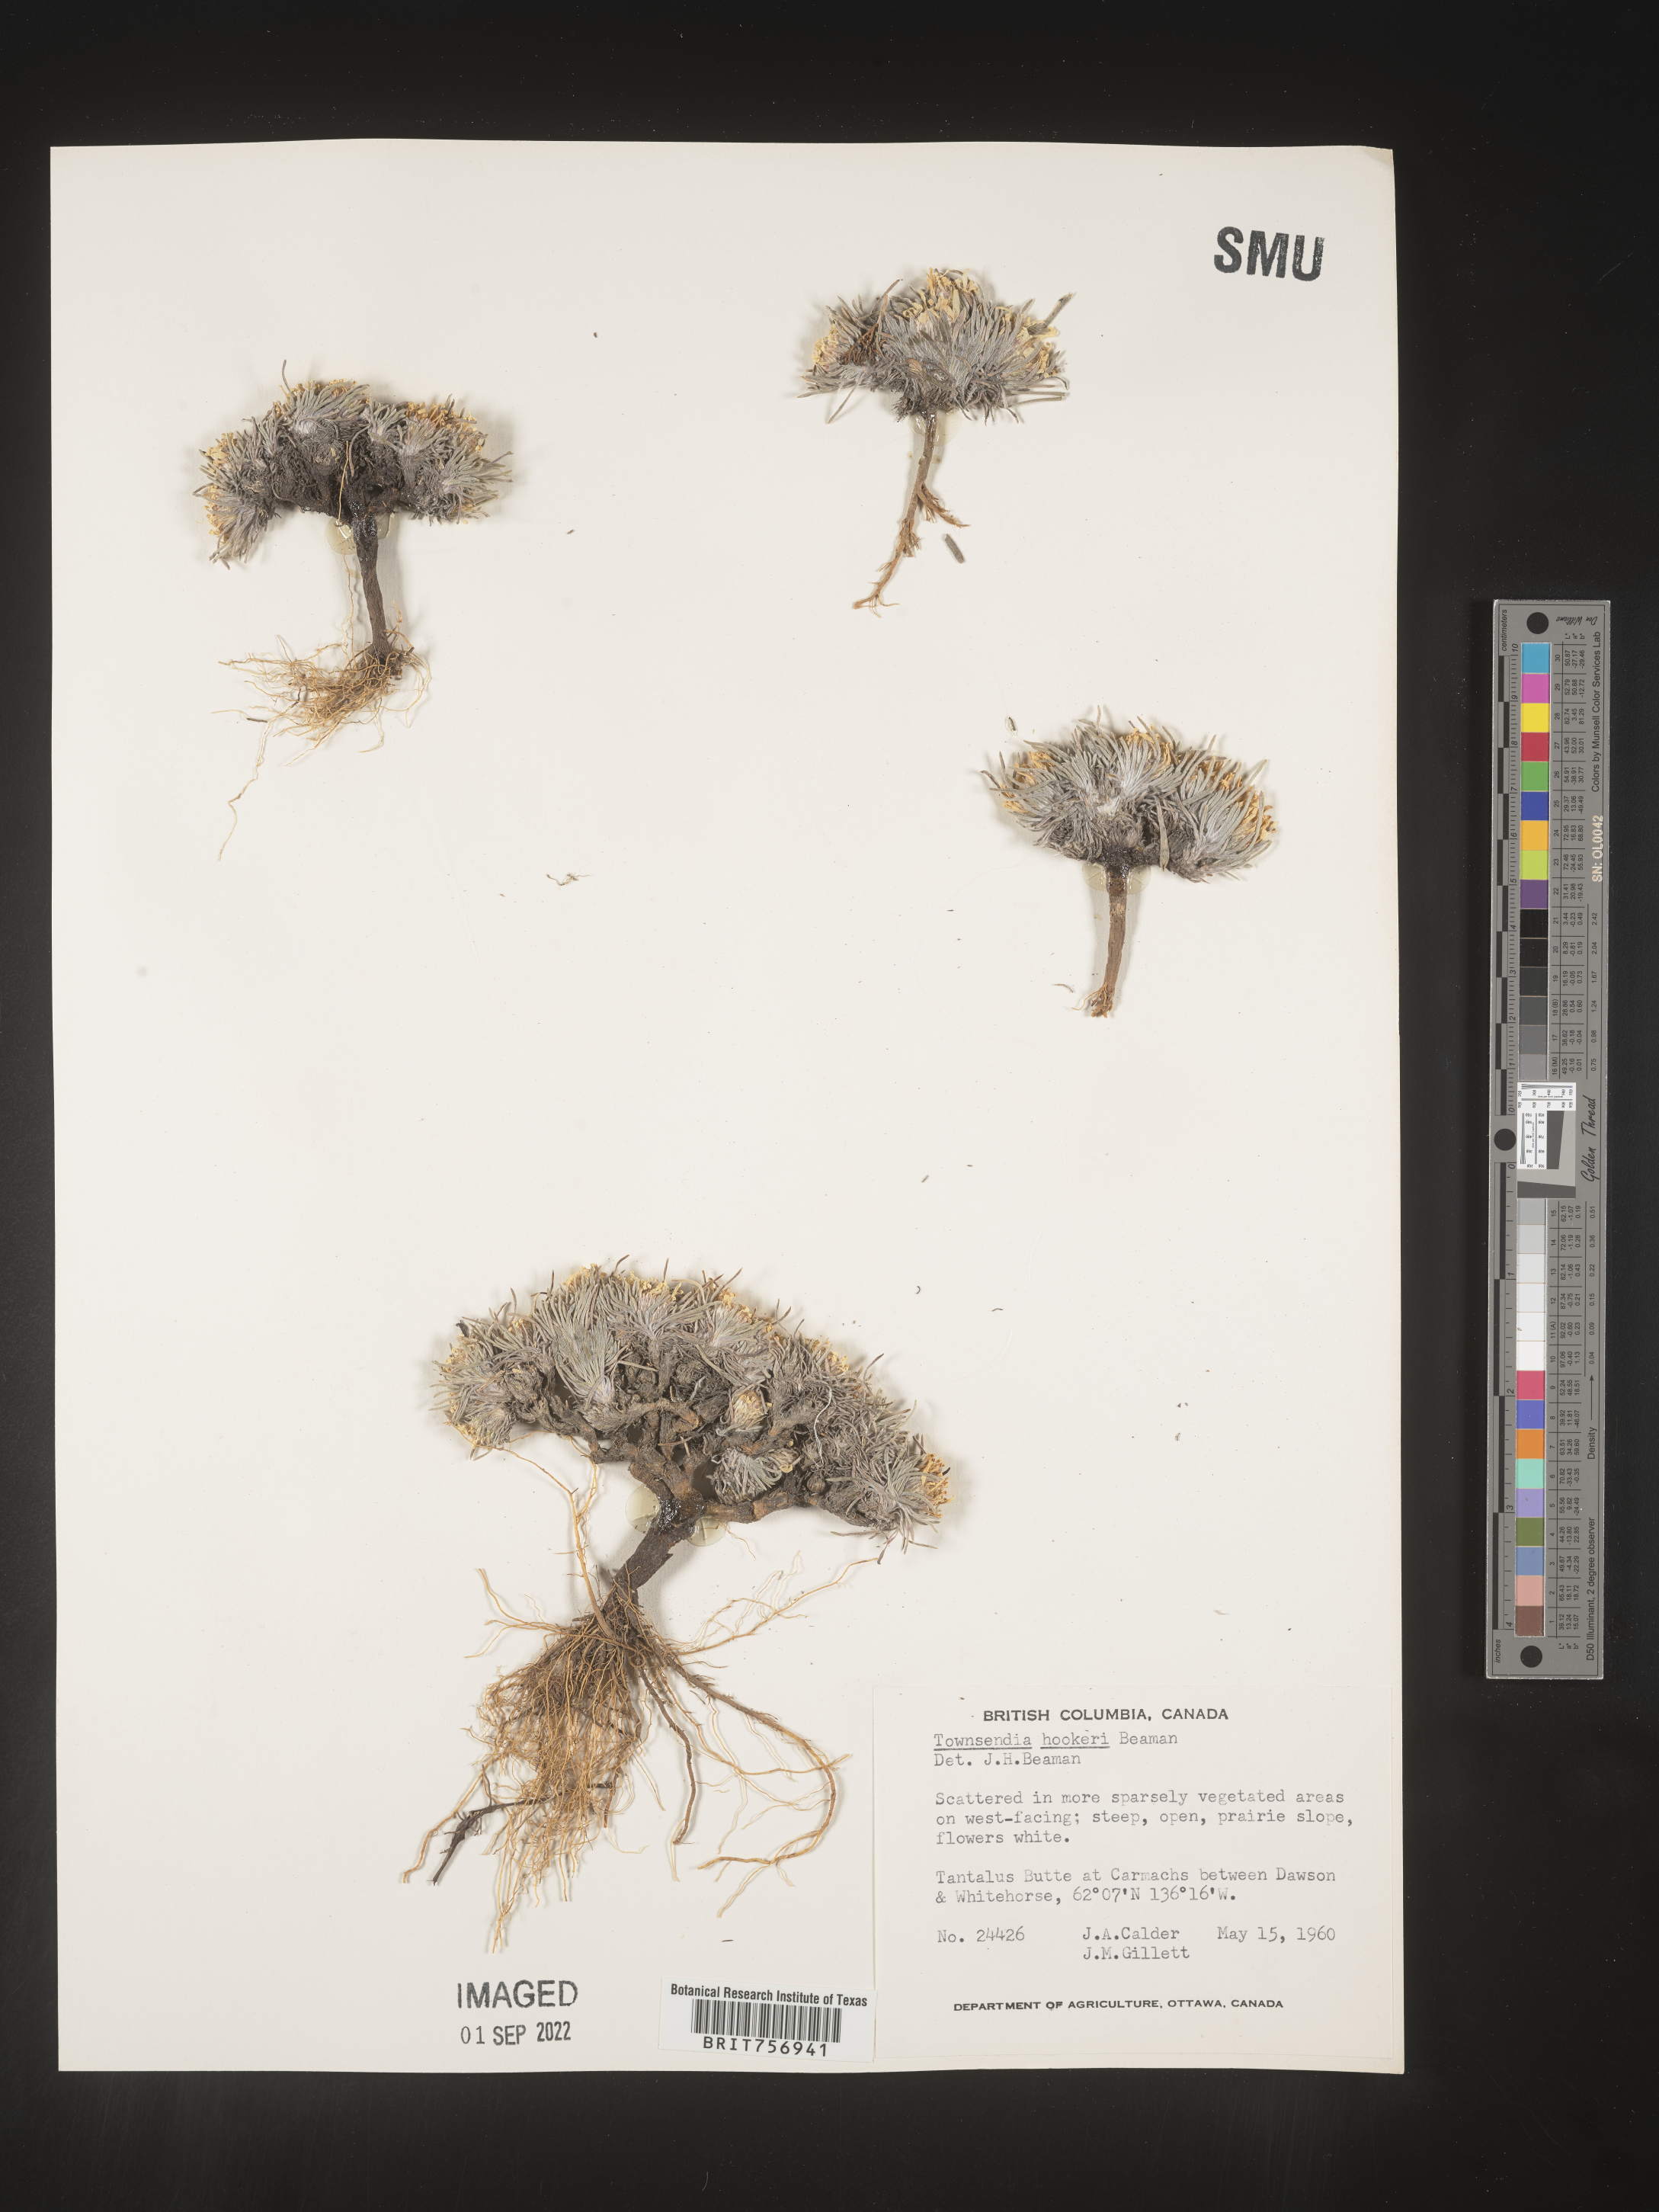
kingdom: Plantae
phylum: Tracheophyta
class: Magnoliopsida
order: Asterales
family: Asteraceae
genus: Townsendia
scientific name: Townsendia hookeri
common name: Hooker's townsend daisy
